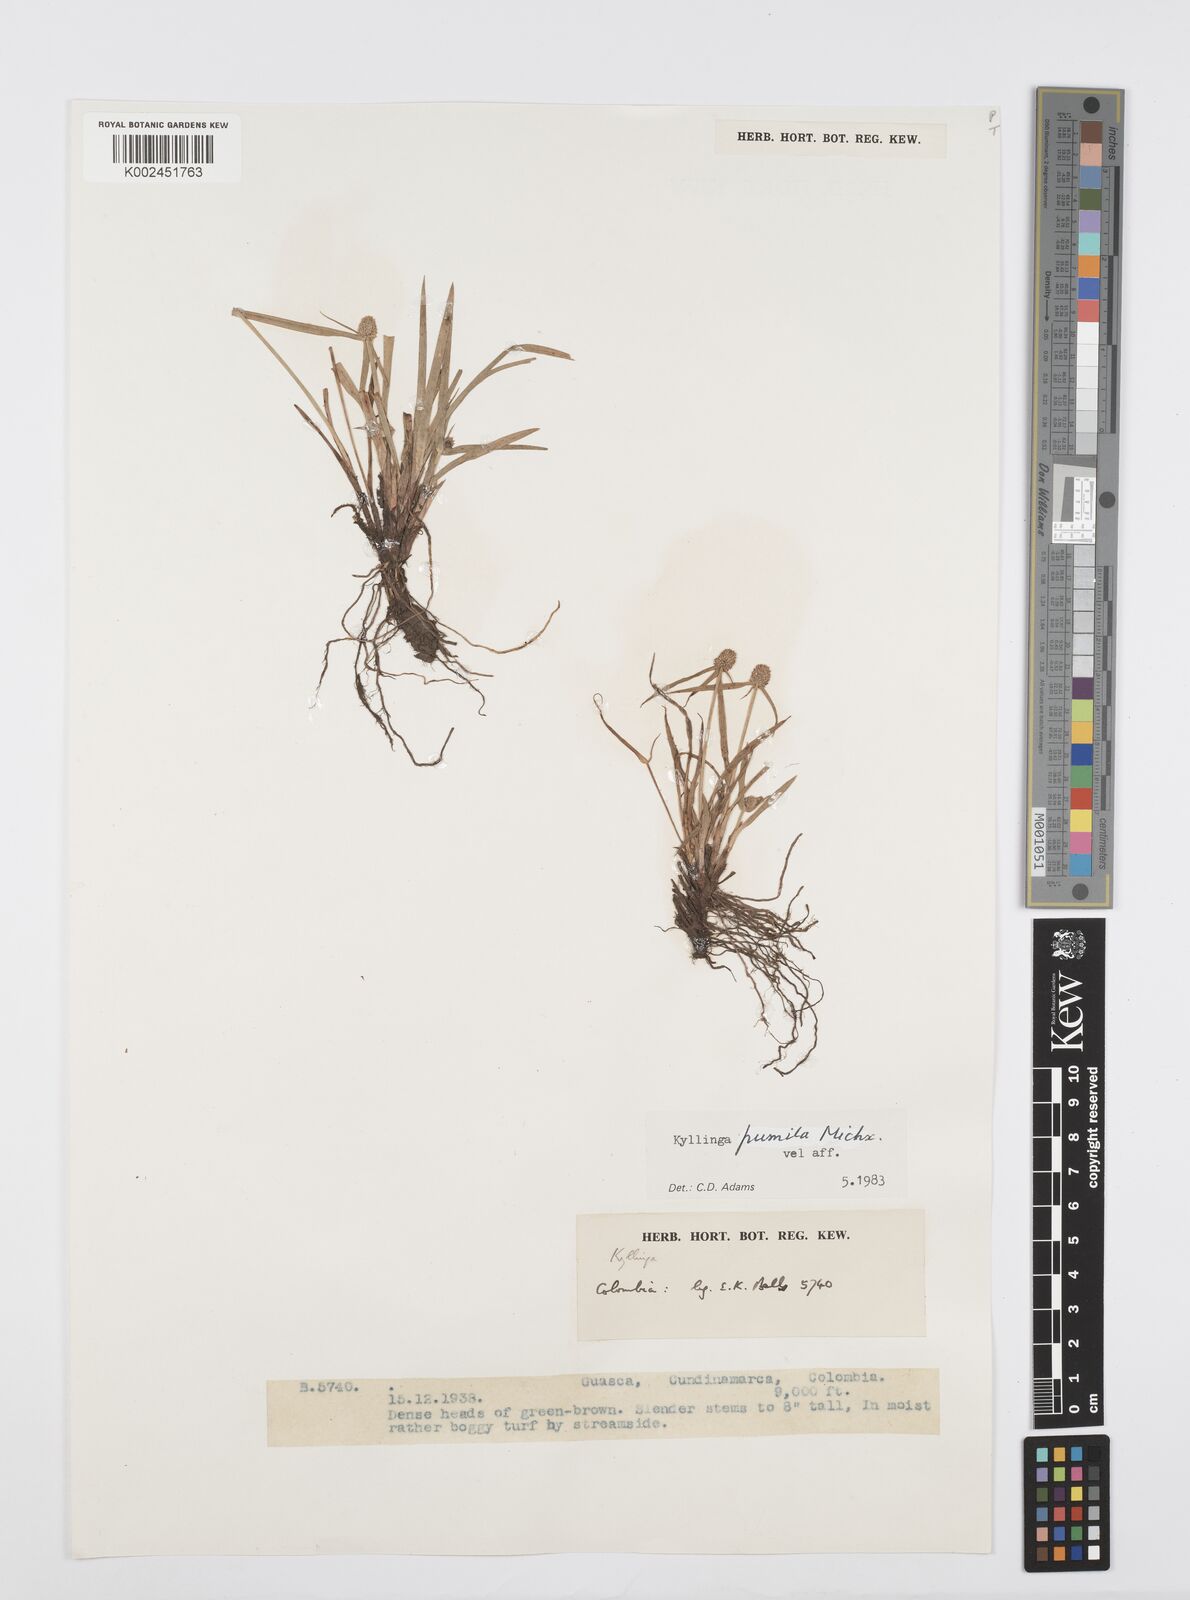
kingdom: Plantae
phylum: Tracheophyta
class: Liliopsida
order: Poales
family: Cyperaceae
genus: Cyperus
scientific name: Cyperus
